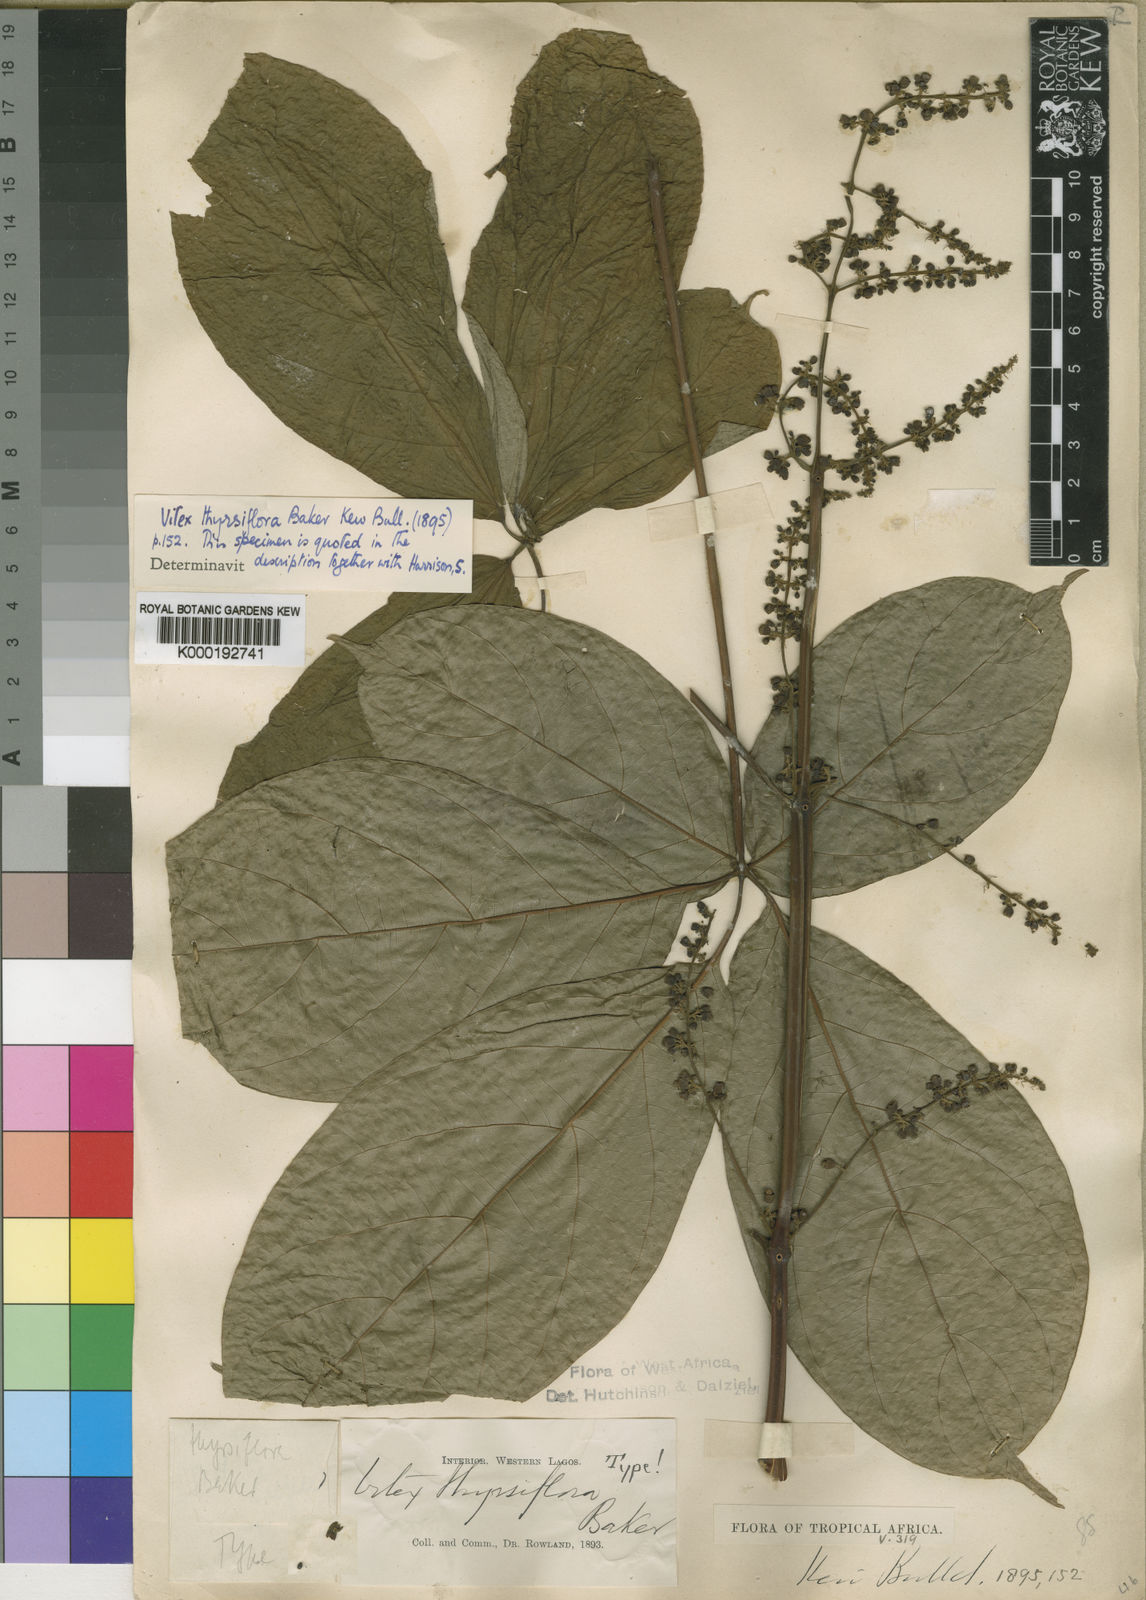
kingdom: Plantae
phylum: Tracheophyta
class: Magnoliopsida
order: Lamiales
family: Lamiaceae
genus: Vitex
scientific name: Vitex thyrsiflora
